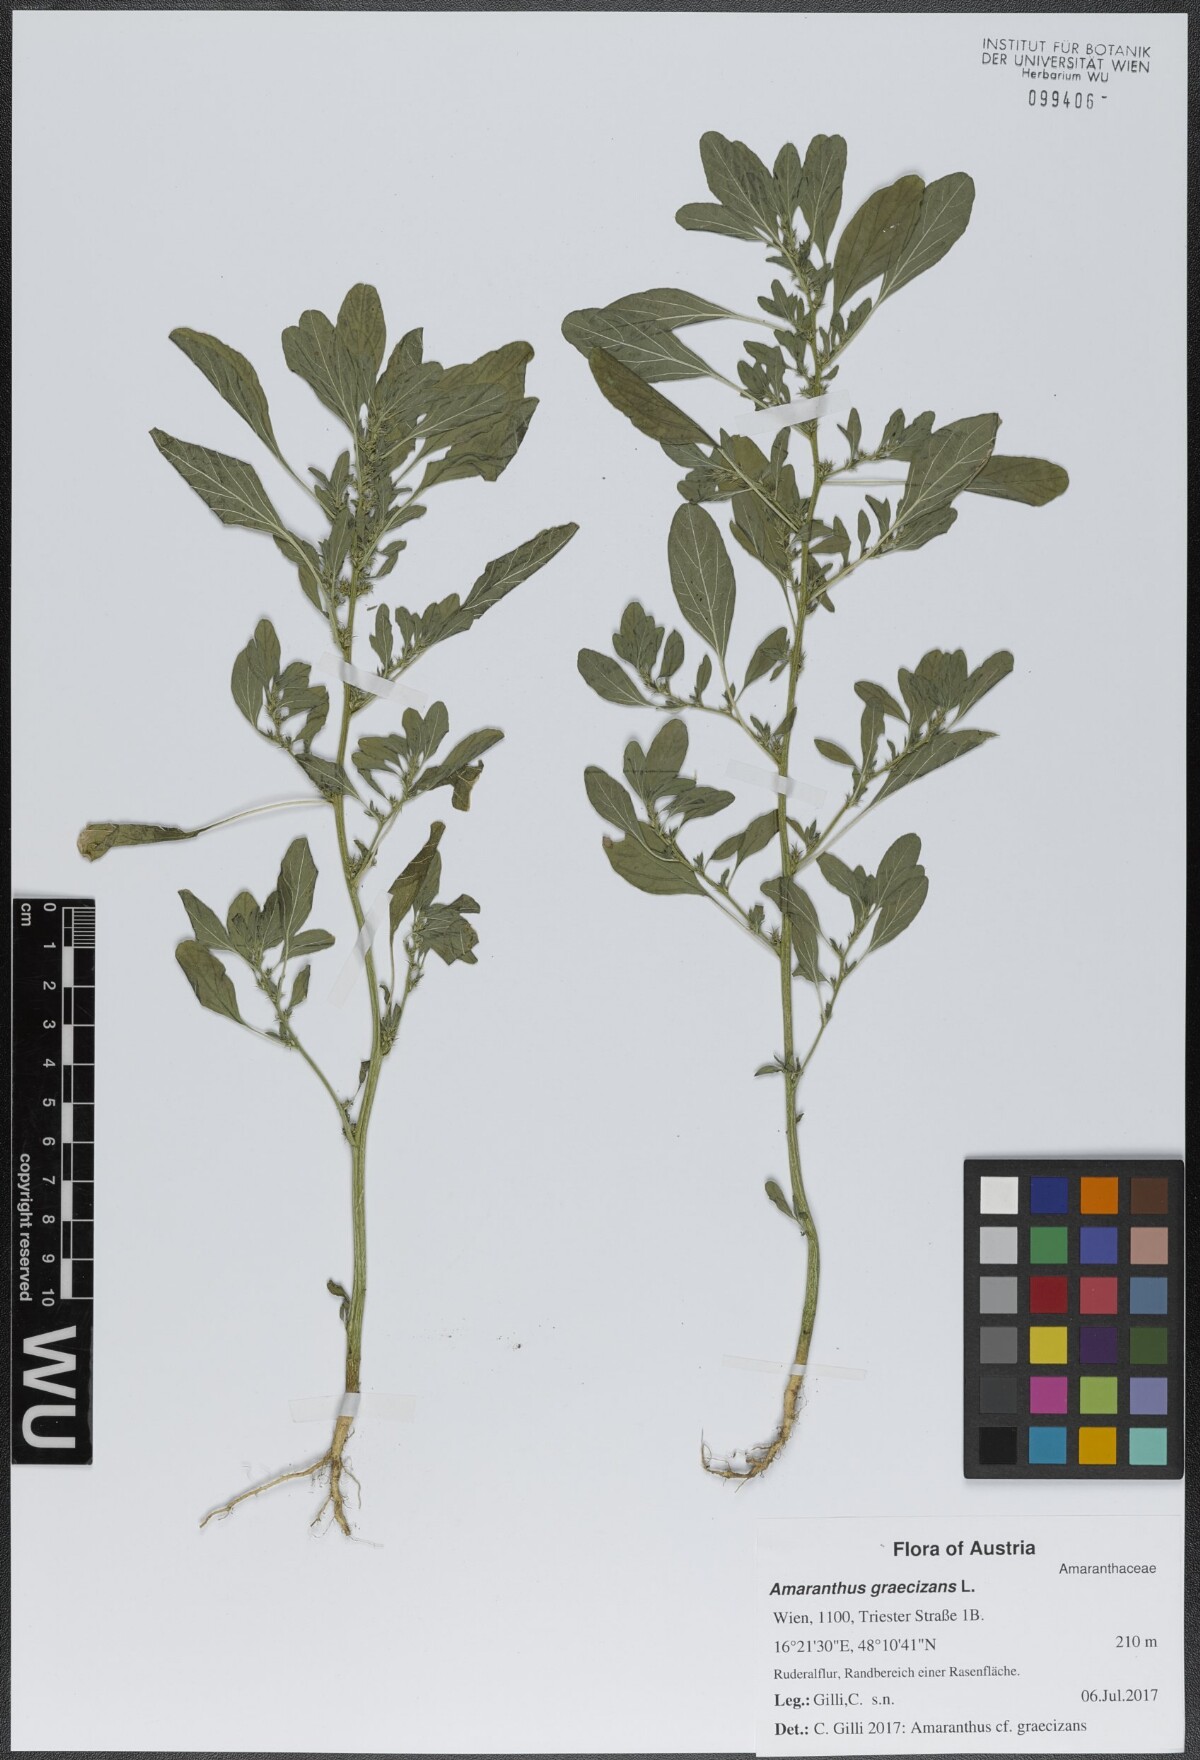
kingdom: Plantae
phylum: Tracheophyta
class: Magnoliopsida
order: Caryophyllales
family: Amaranthaceae
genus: Amaranthus
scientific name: Amaranthus albus
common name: White pigweed
